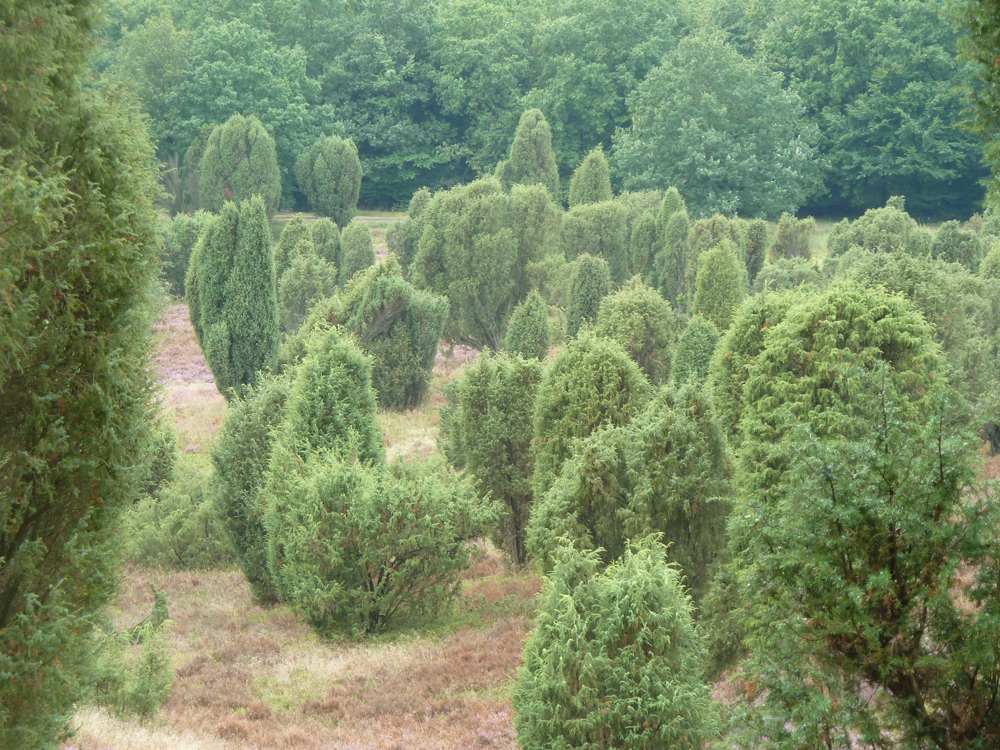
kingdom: Plantae
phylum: Tracheophyta
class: Pinopsida
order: Pinales
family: Cupressaceae
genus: Juniperus
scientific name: Juniperus communis
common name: Common juniper
